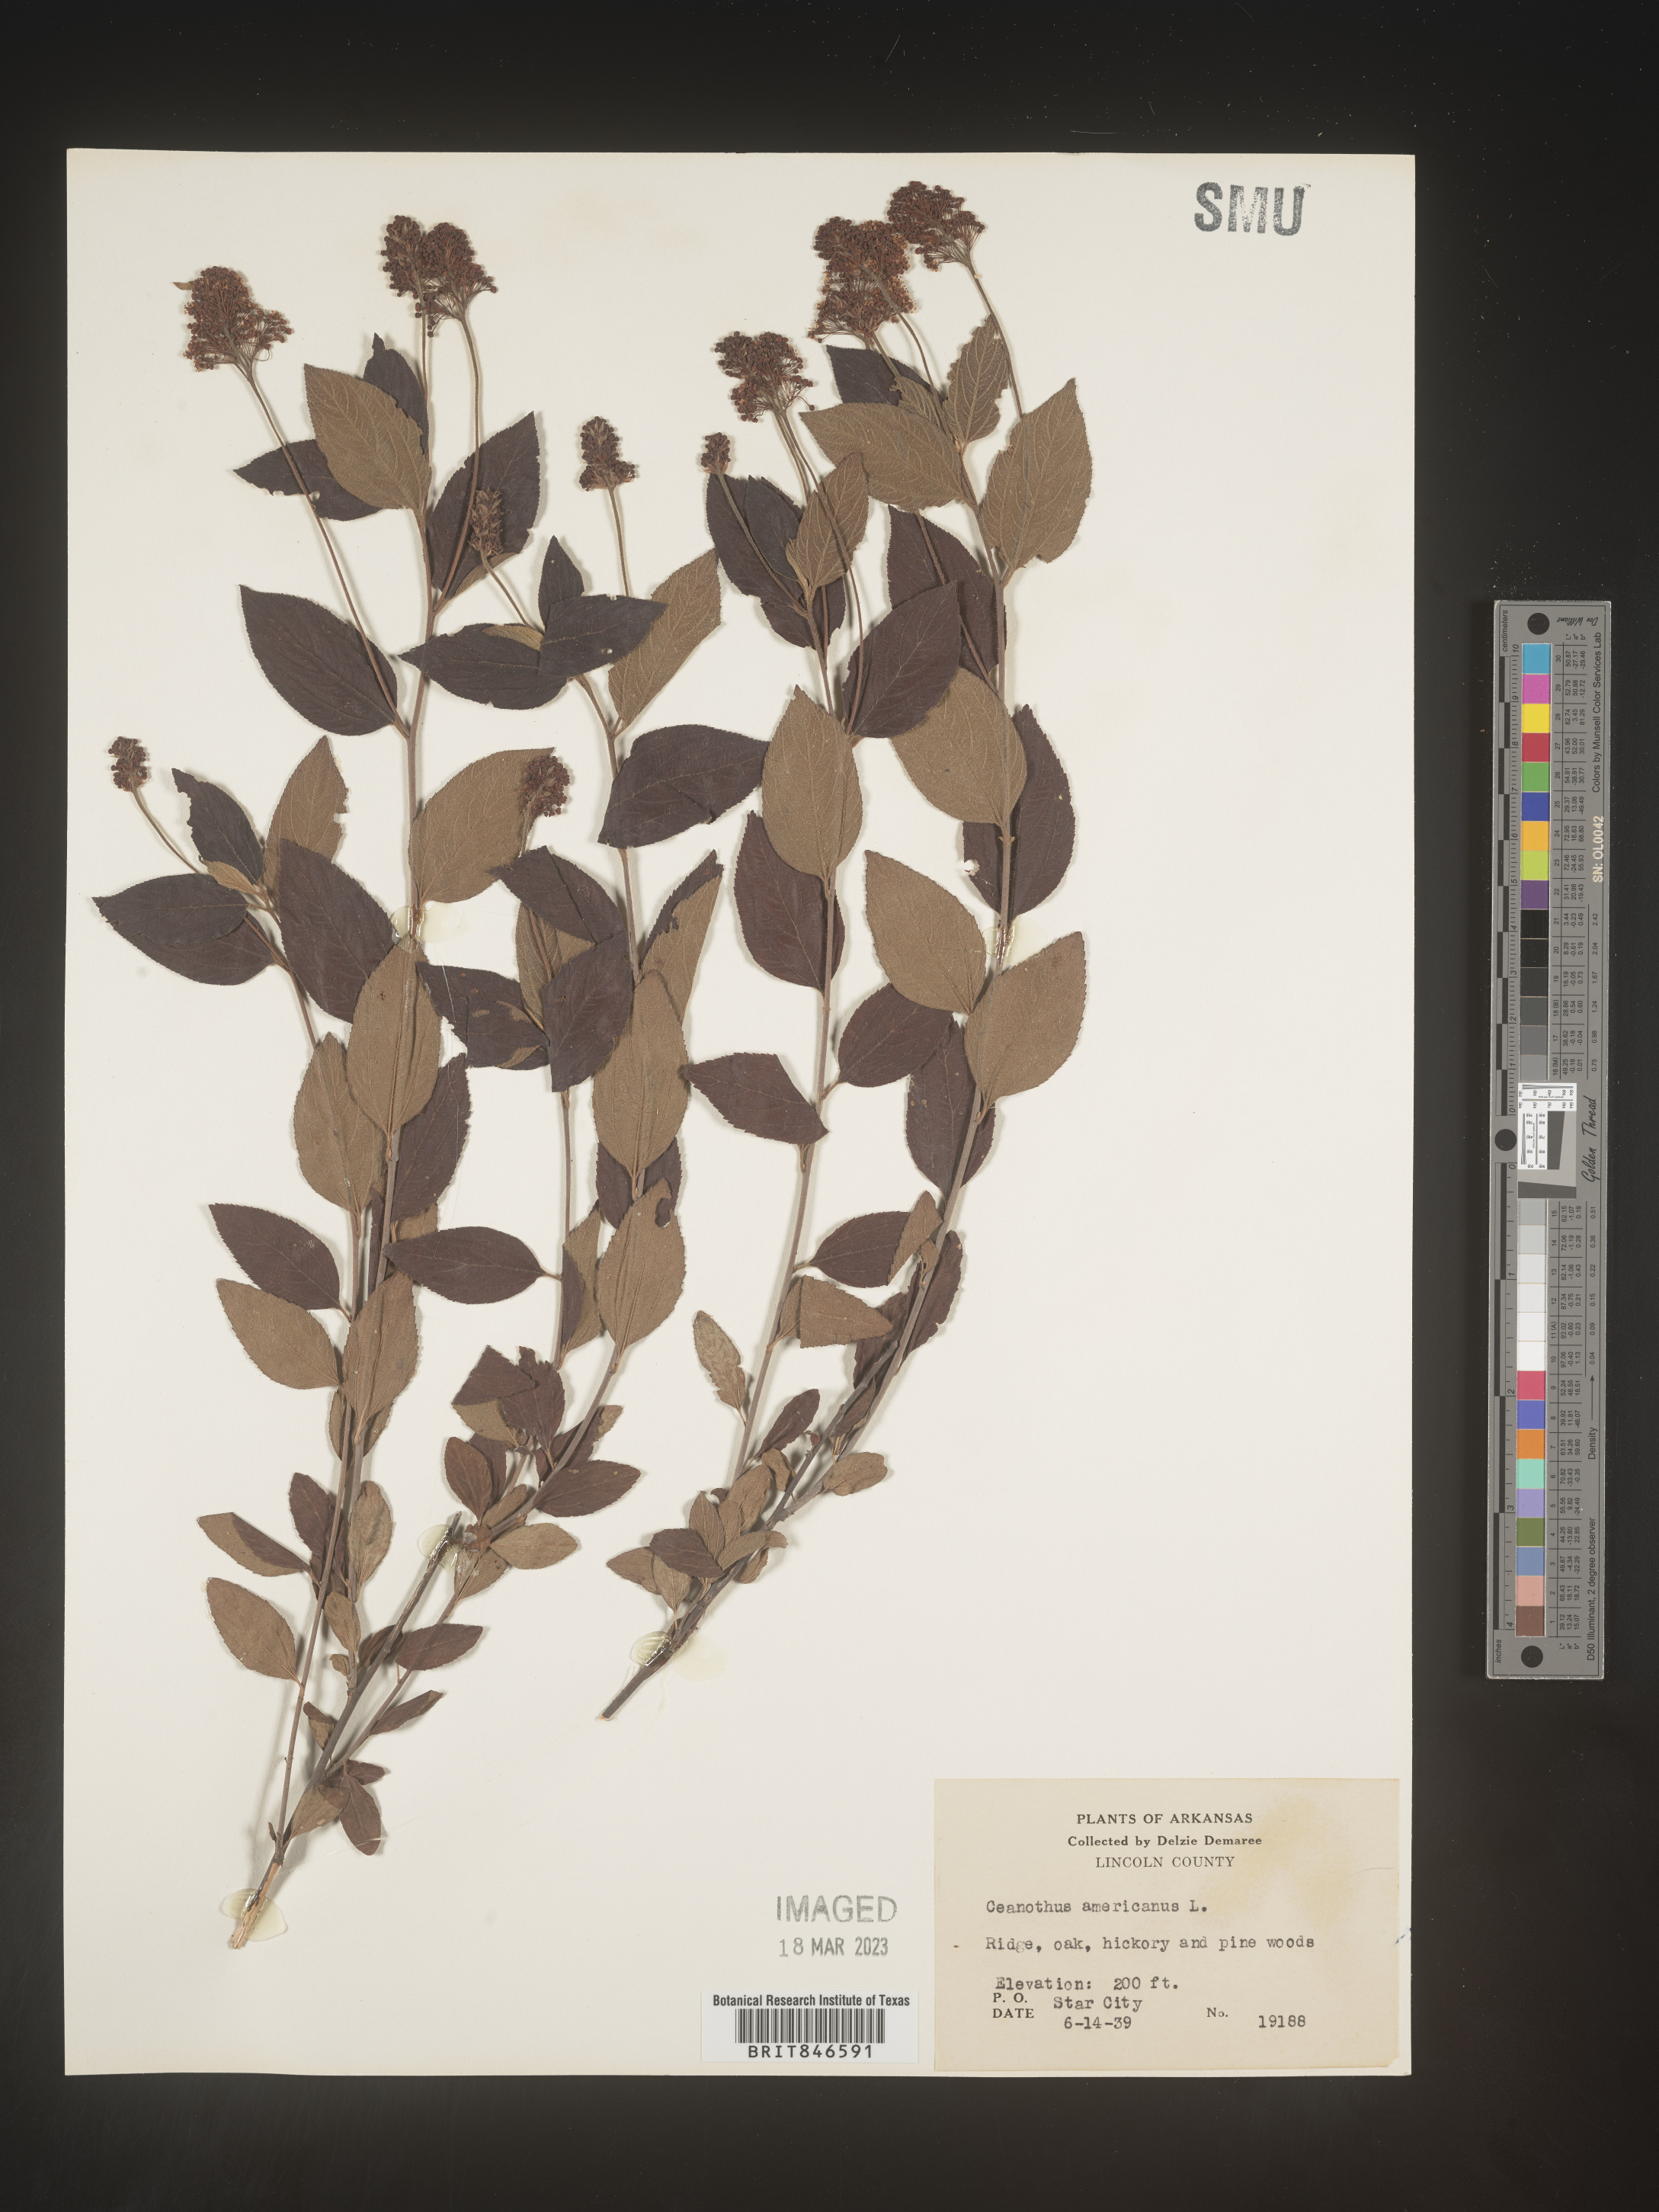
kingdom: Plantae
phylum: Tracheophyta
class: Magnoliopsida
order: Rosales
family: Rhamnaceae
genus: Ceanothus
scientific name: Ceanothus americanus
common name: Redroot
